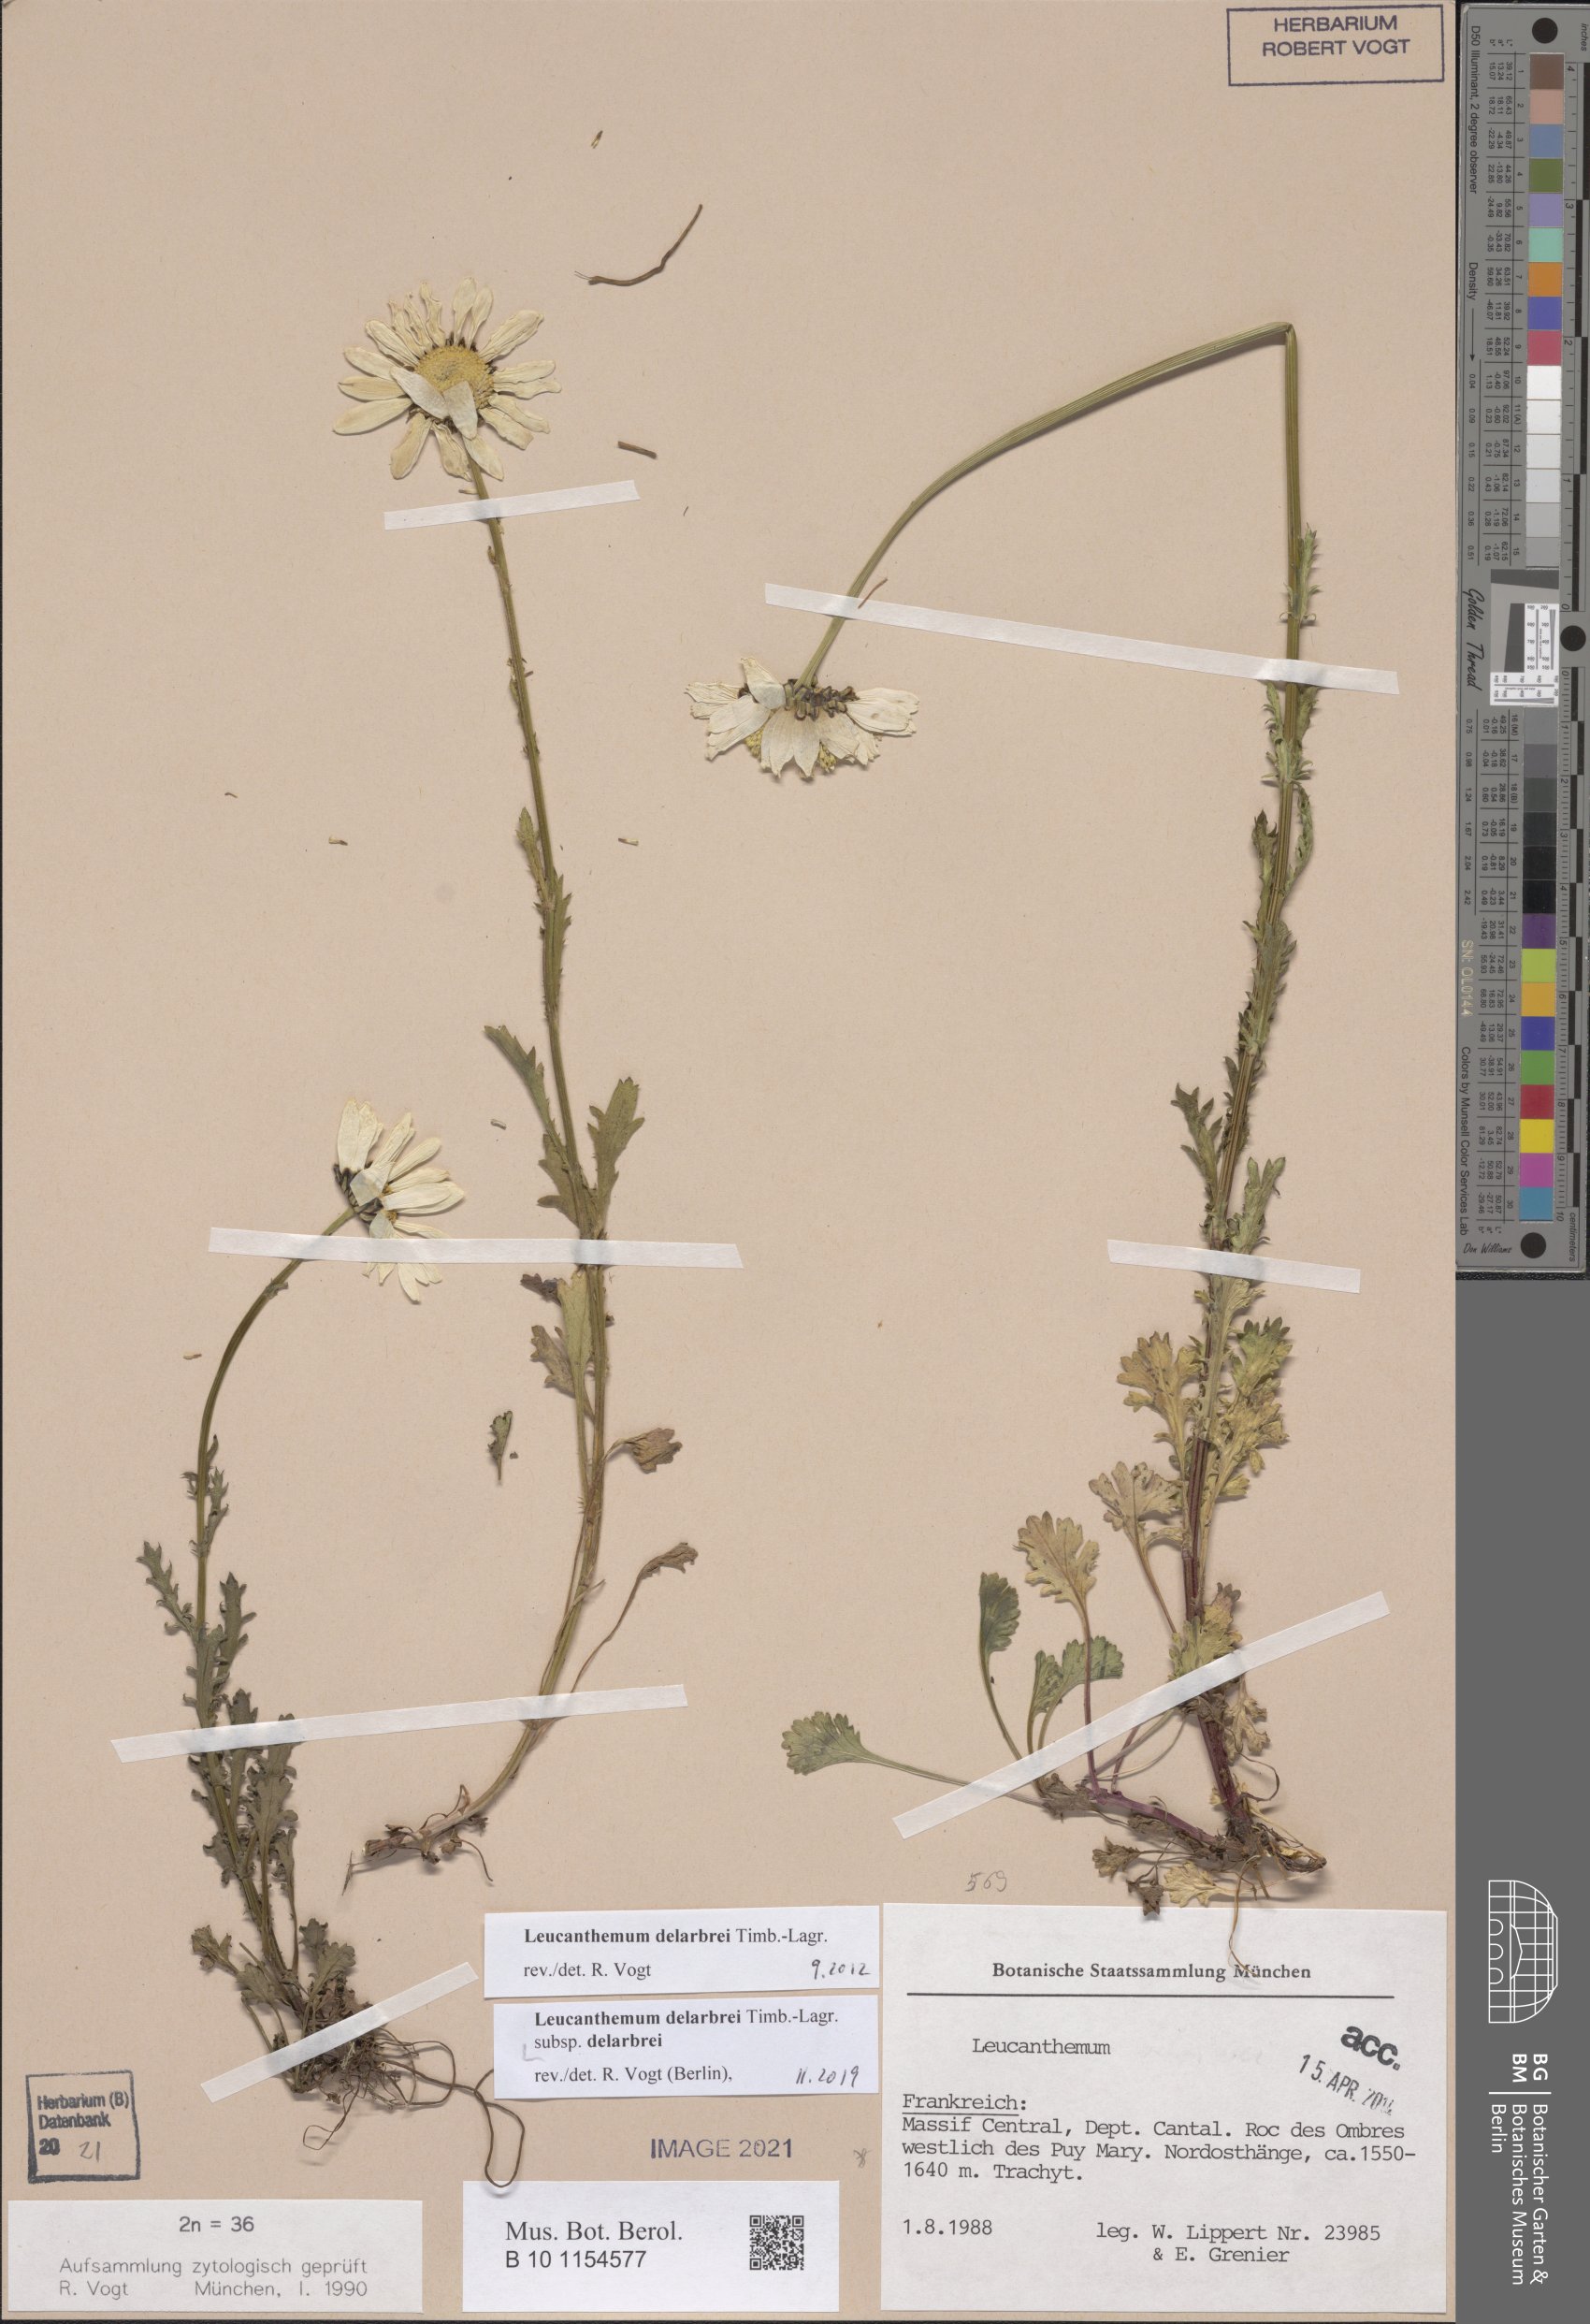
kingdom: Plantae
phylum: Tracheophyta
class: Magnoliopsida
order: Asterales
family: Asteraceae
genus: Leucanthemum
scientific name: Leucanthemum delarbrei
